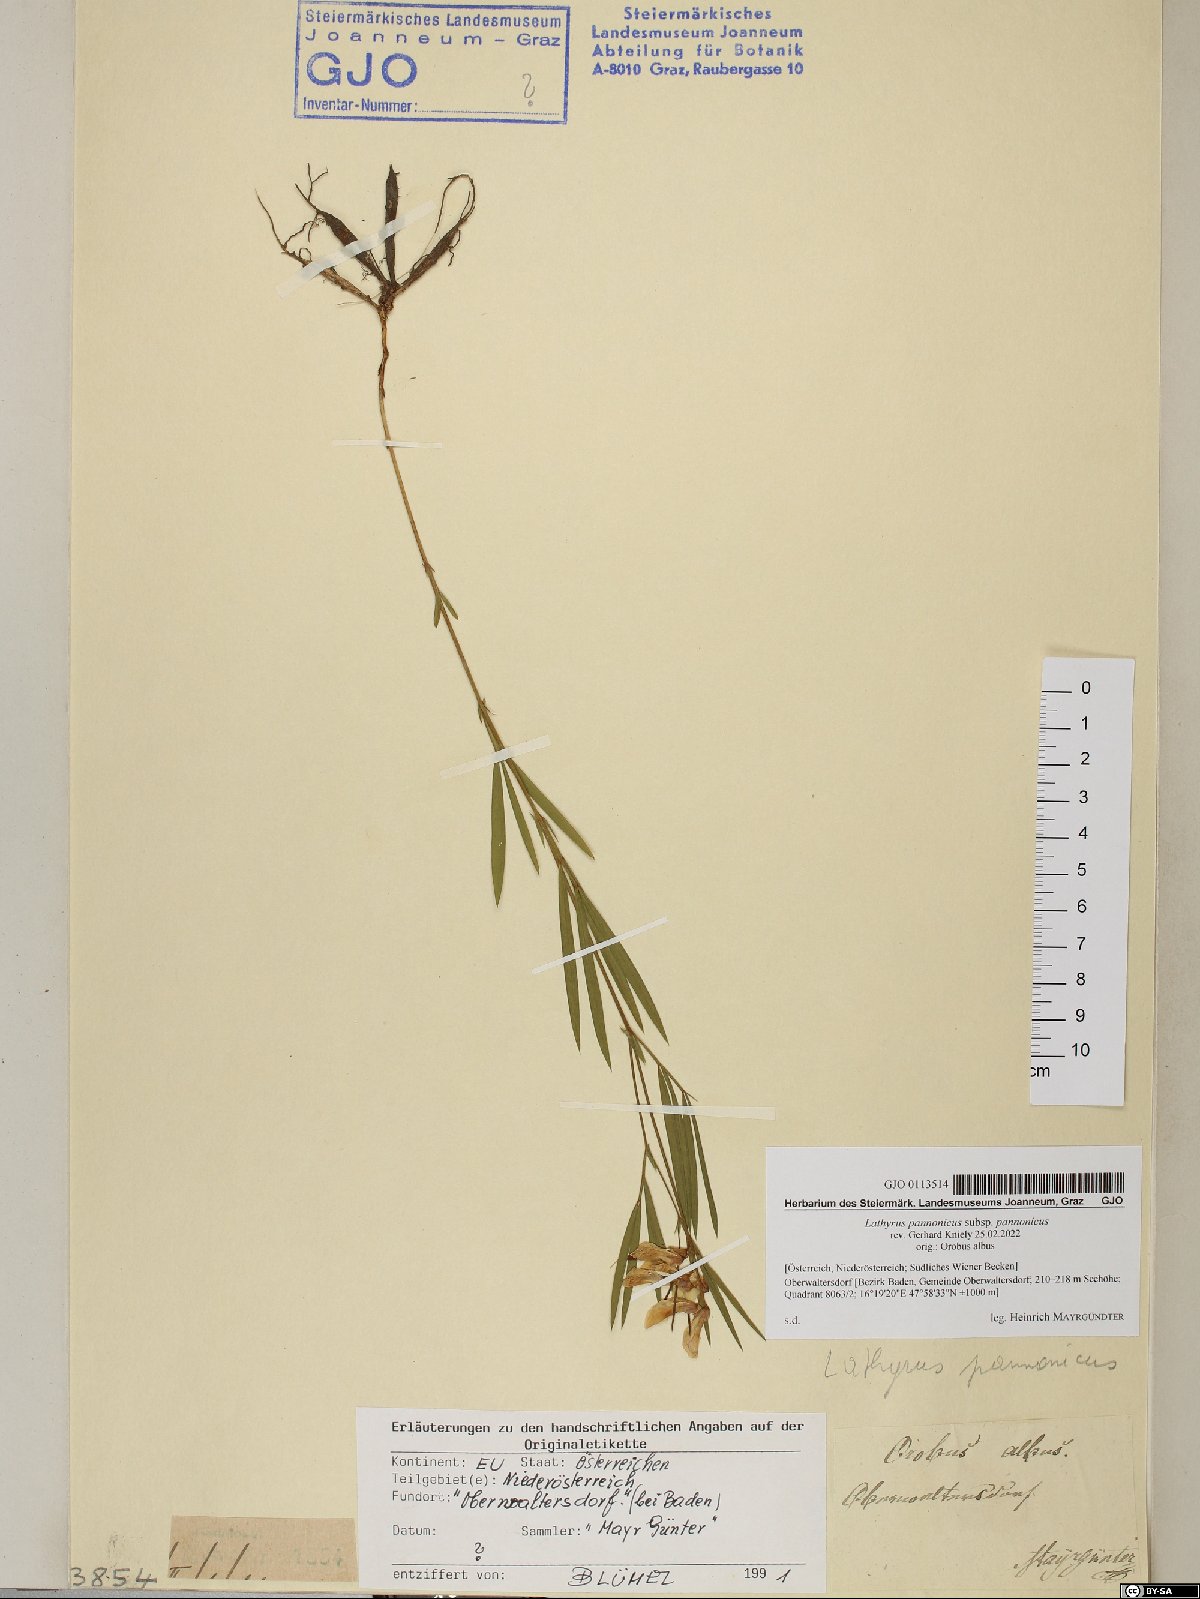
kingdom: Plantae
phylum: Tracheophyta
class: Magnoliopsida
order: Fabales
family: Fabaceae
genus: Lathyrus
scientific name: Lathyrus pannonicus
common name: Pea
